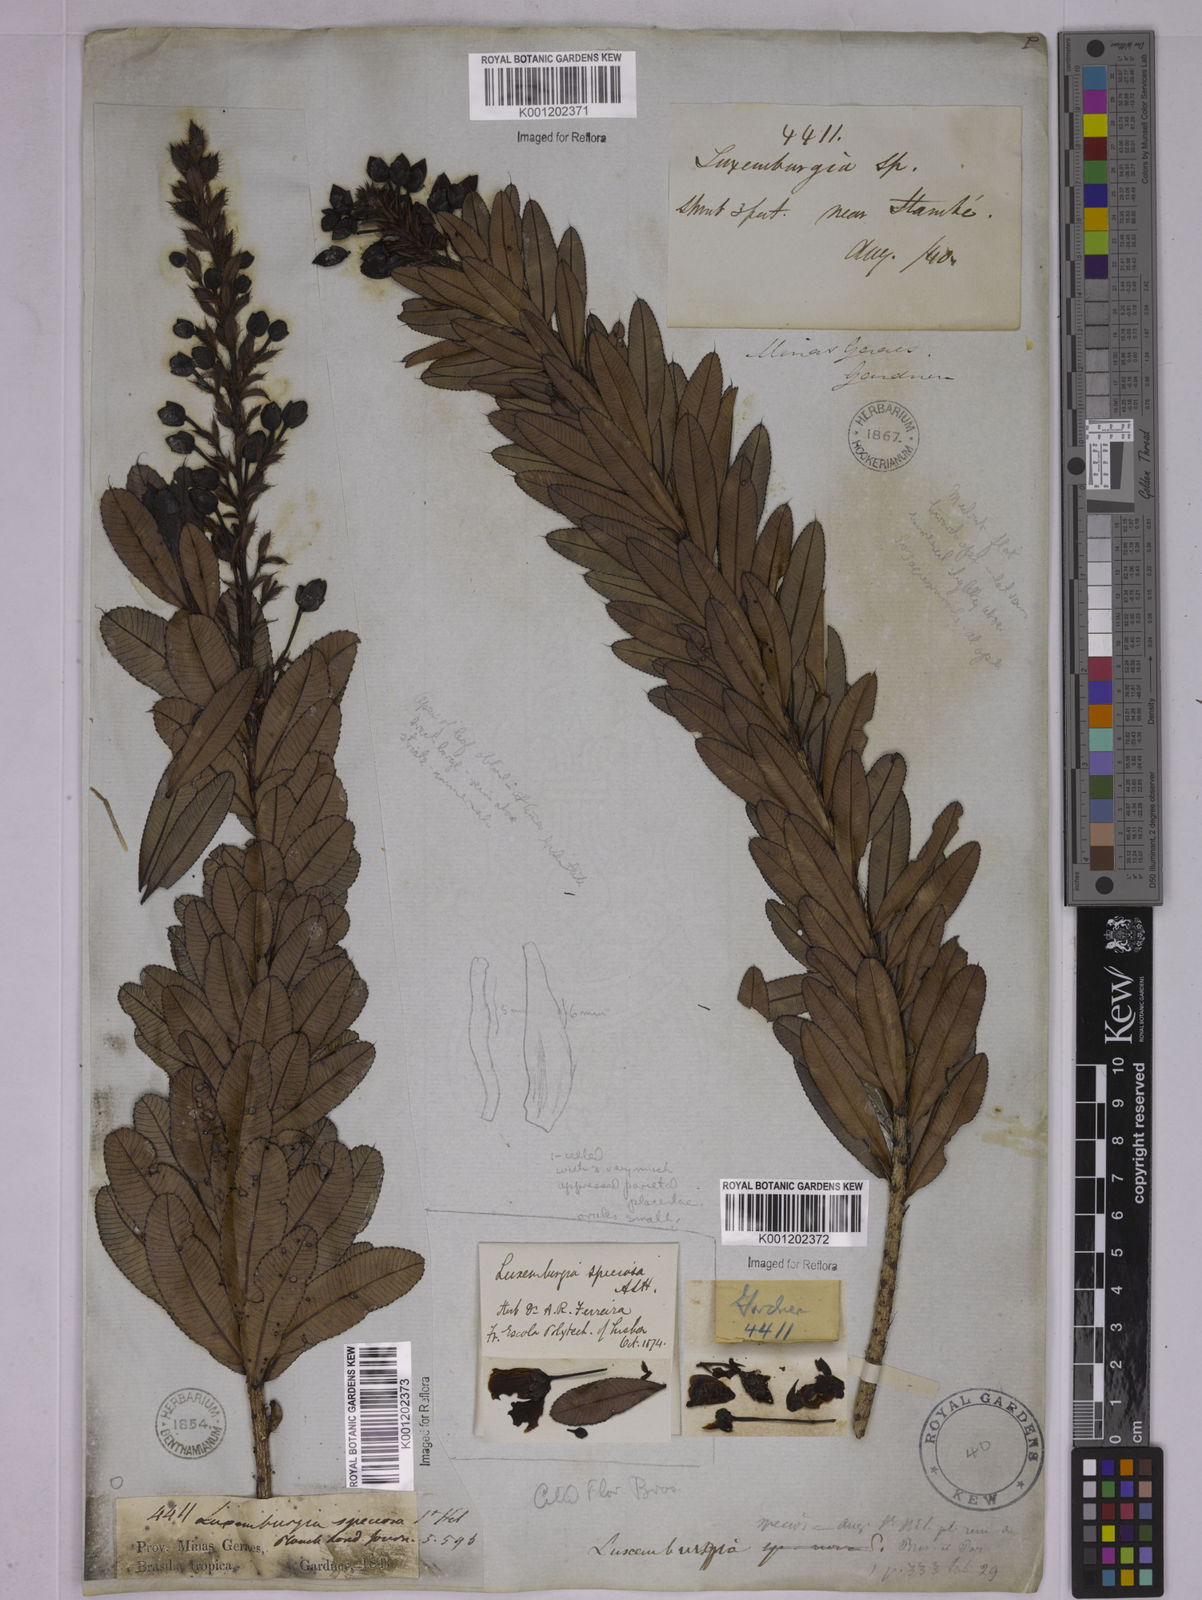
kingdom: Plantae
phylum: Tracheophyta
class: Magnoliopsida
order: Malpighiales
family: Ochnaceae
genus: Luxemburgia
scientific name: Luxemburgia speciosa
